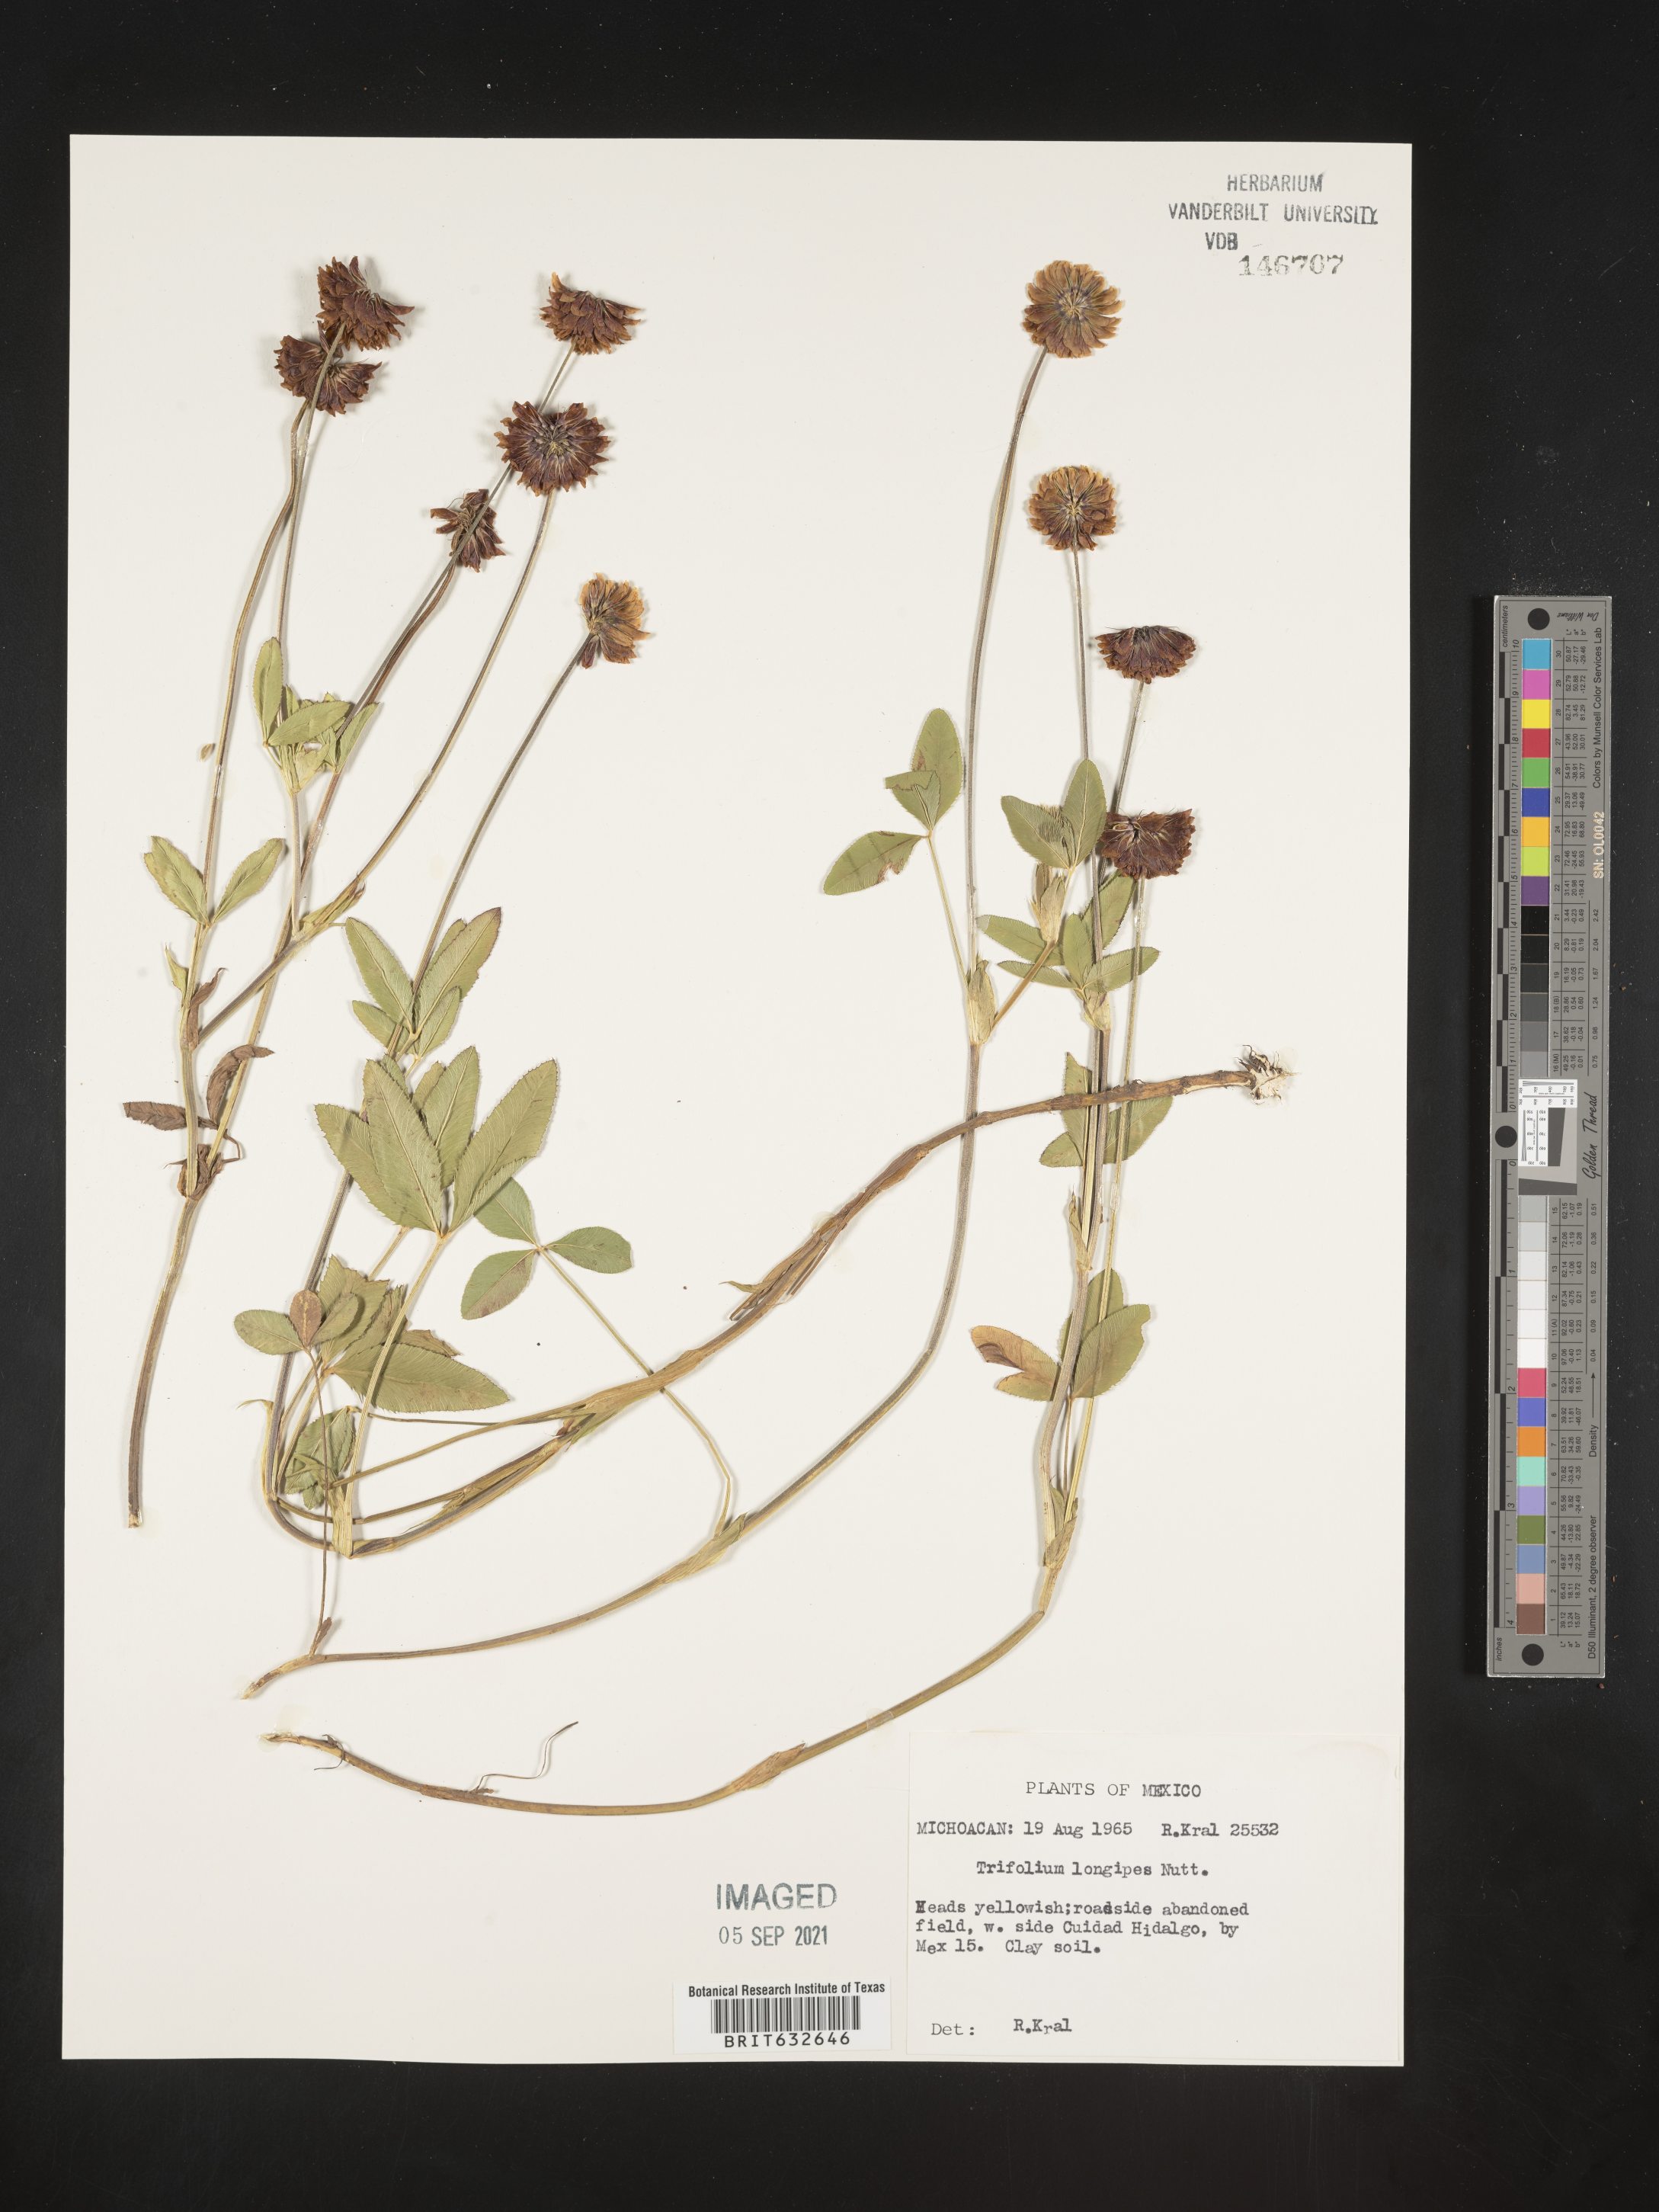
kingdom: Plantae
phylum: Tracheophyta
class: Magnoliopsida
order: Fabales
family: Fabaceae
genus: Trifolium
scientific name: Trifolium
